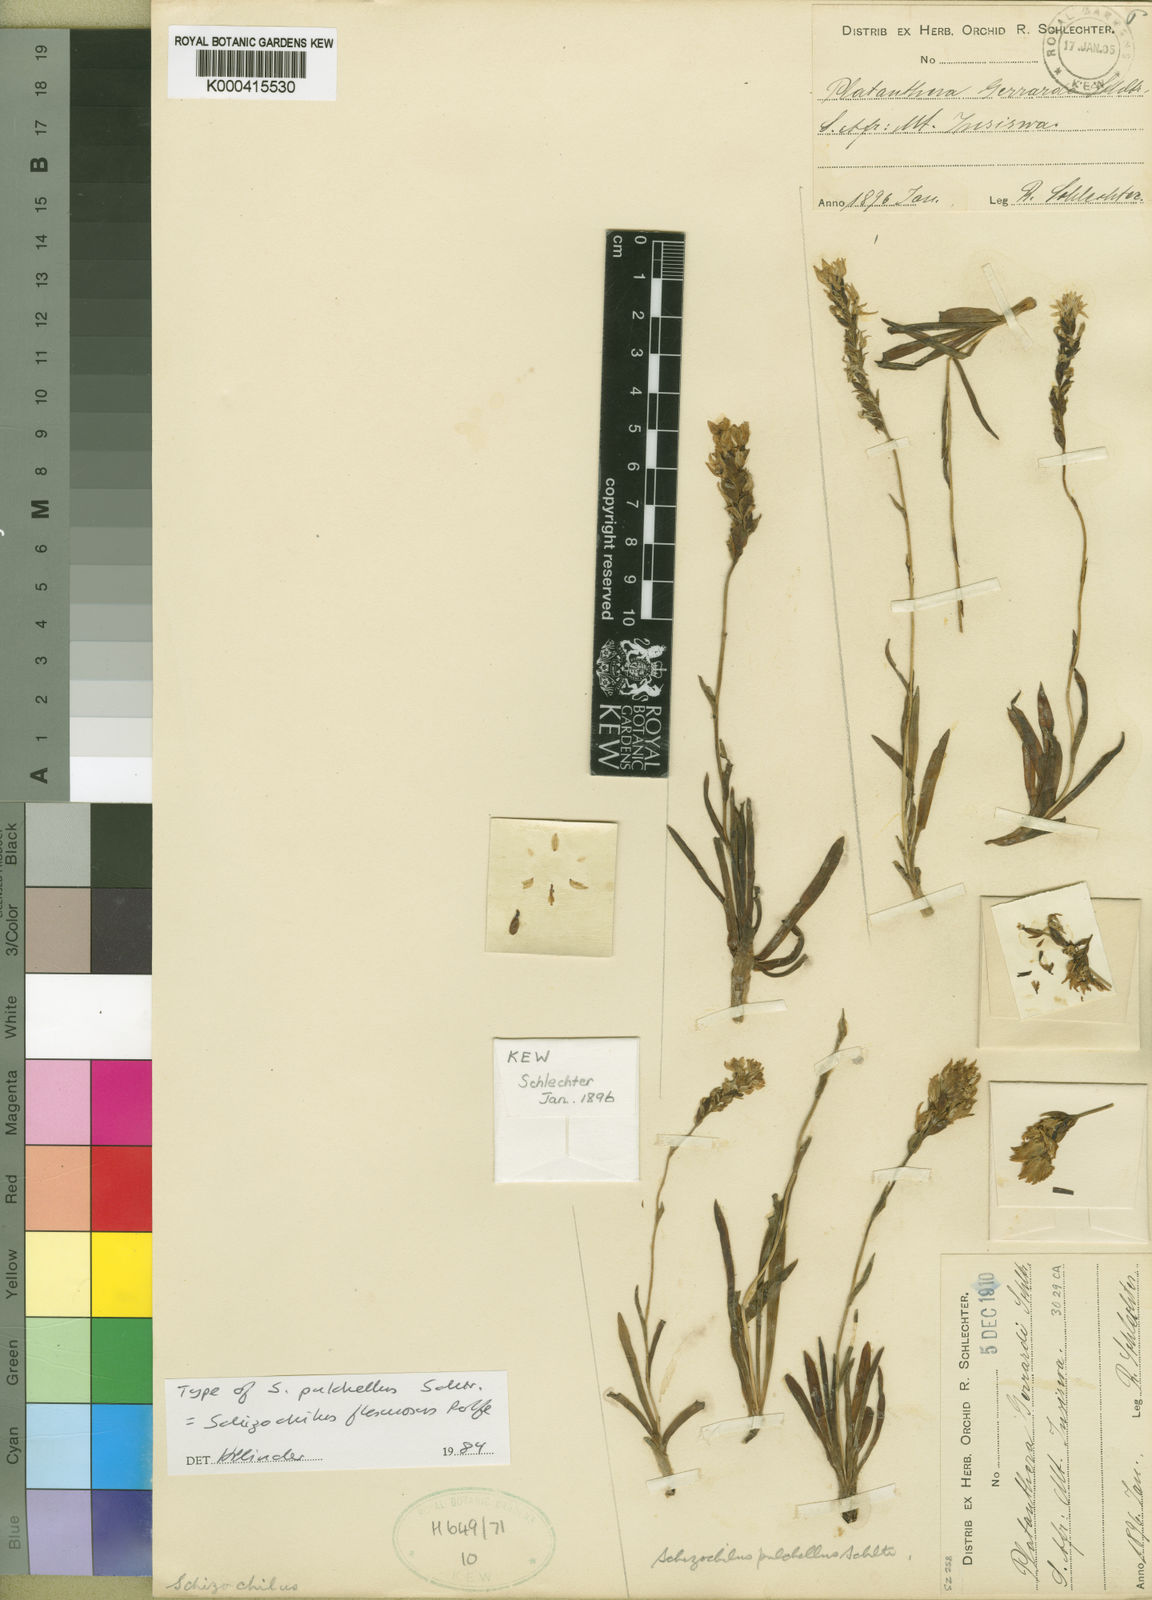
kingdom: Plantae
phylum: Tracheophyta
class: Liliopsida
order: Asparagales
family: Orchidaceae
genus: Schizochilus
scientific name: Schizochilus flexuosus
